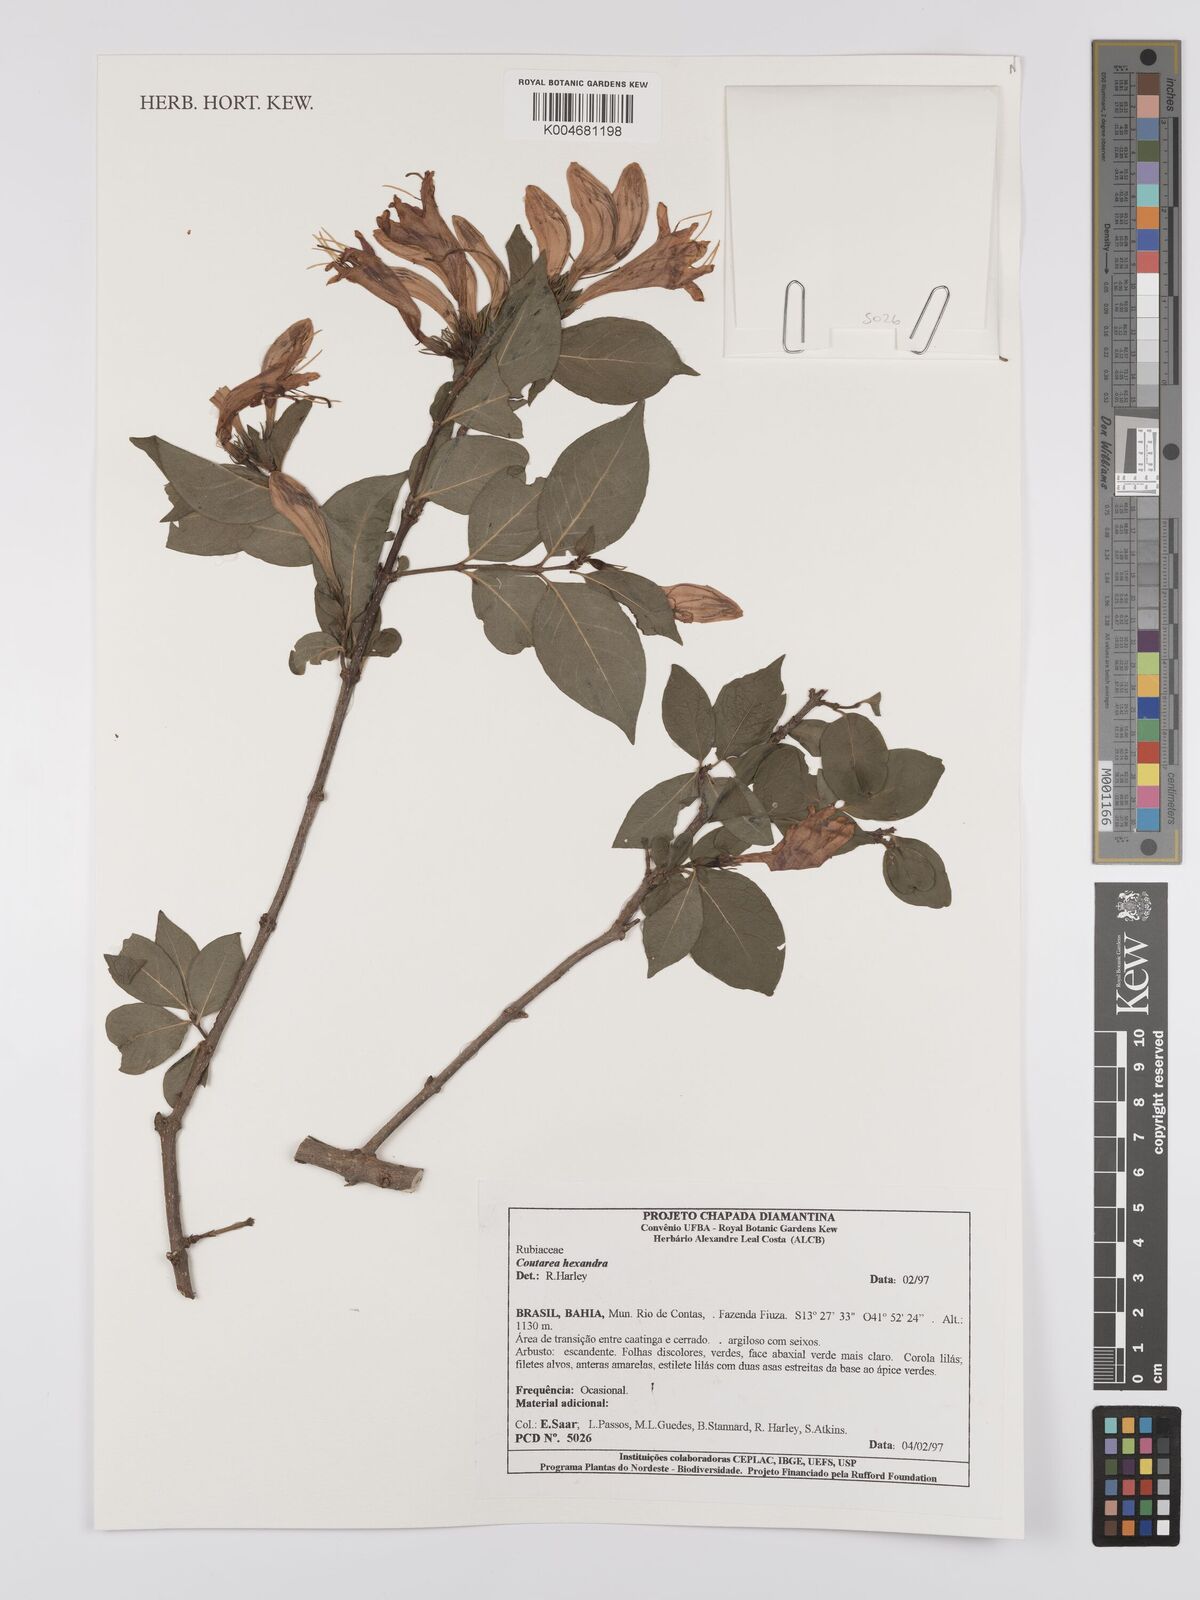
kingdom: Plantae
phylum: Tracheophyta
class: Magnoliopsida
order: Gentianales
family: Rubiaceae
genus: Coutarea
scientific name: Coutarea hexandra
